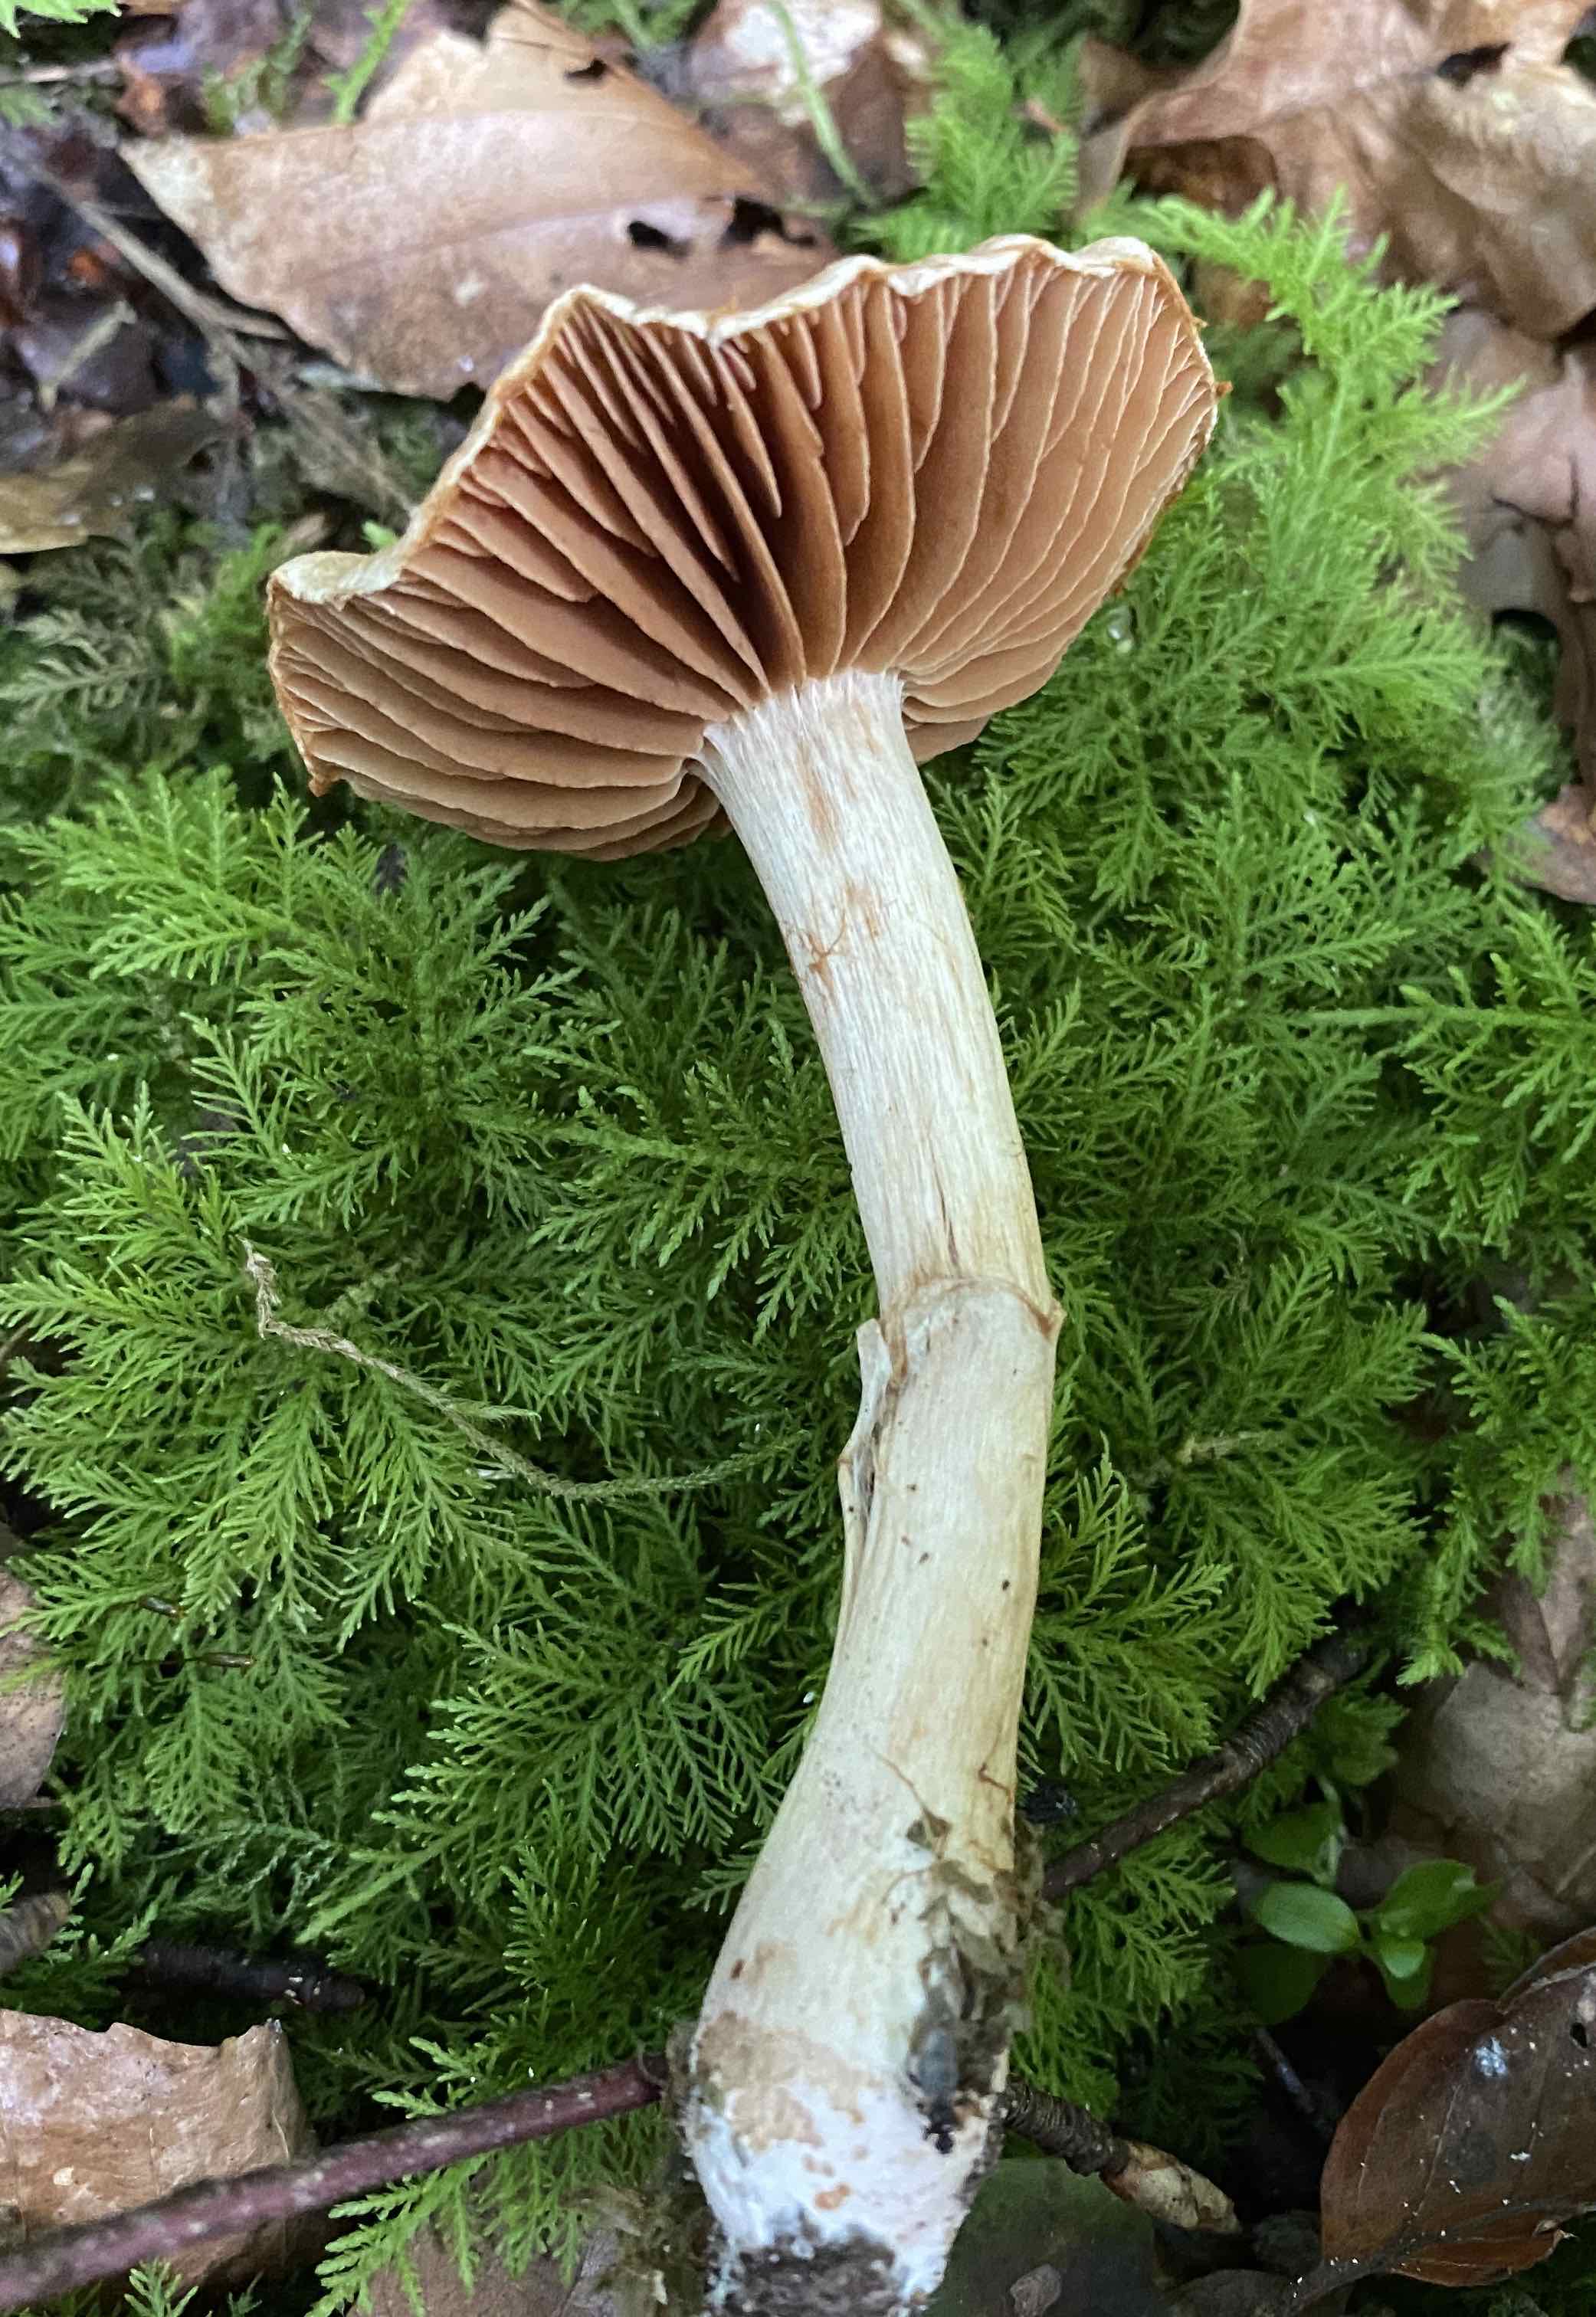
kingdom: Fungi
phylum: Basidiomycota
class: Agaricomycetes
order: Agaricales
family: Cortinariaceae
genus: Cortinarius
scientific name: Cortinarius
